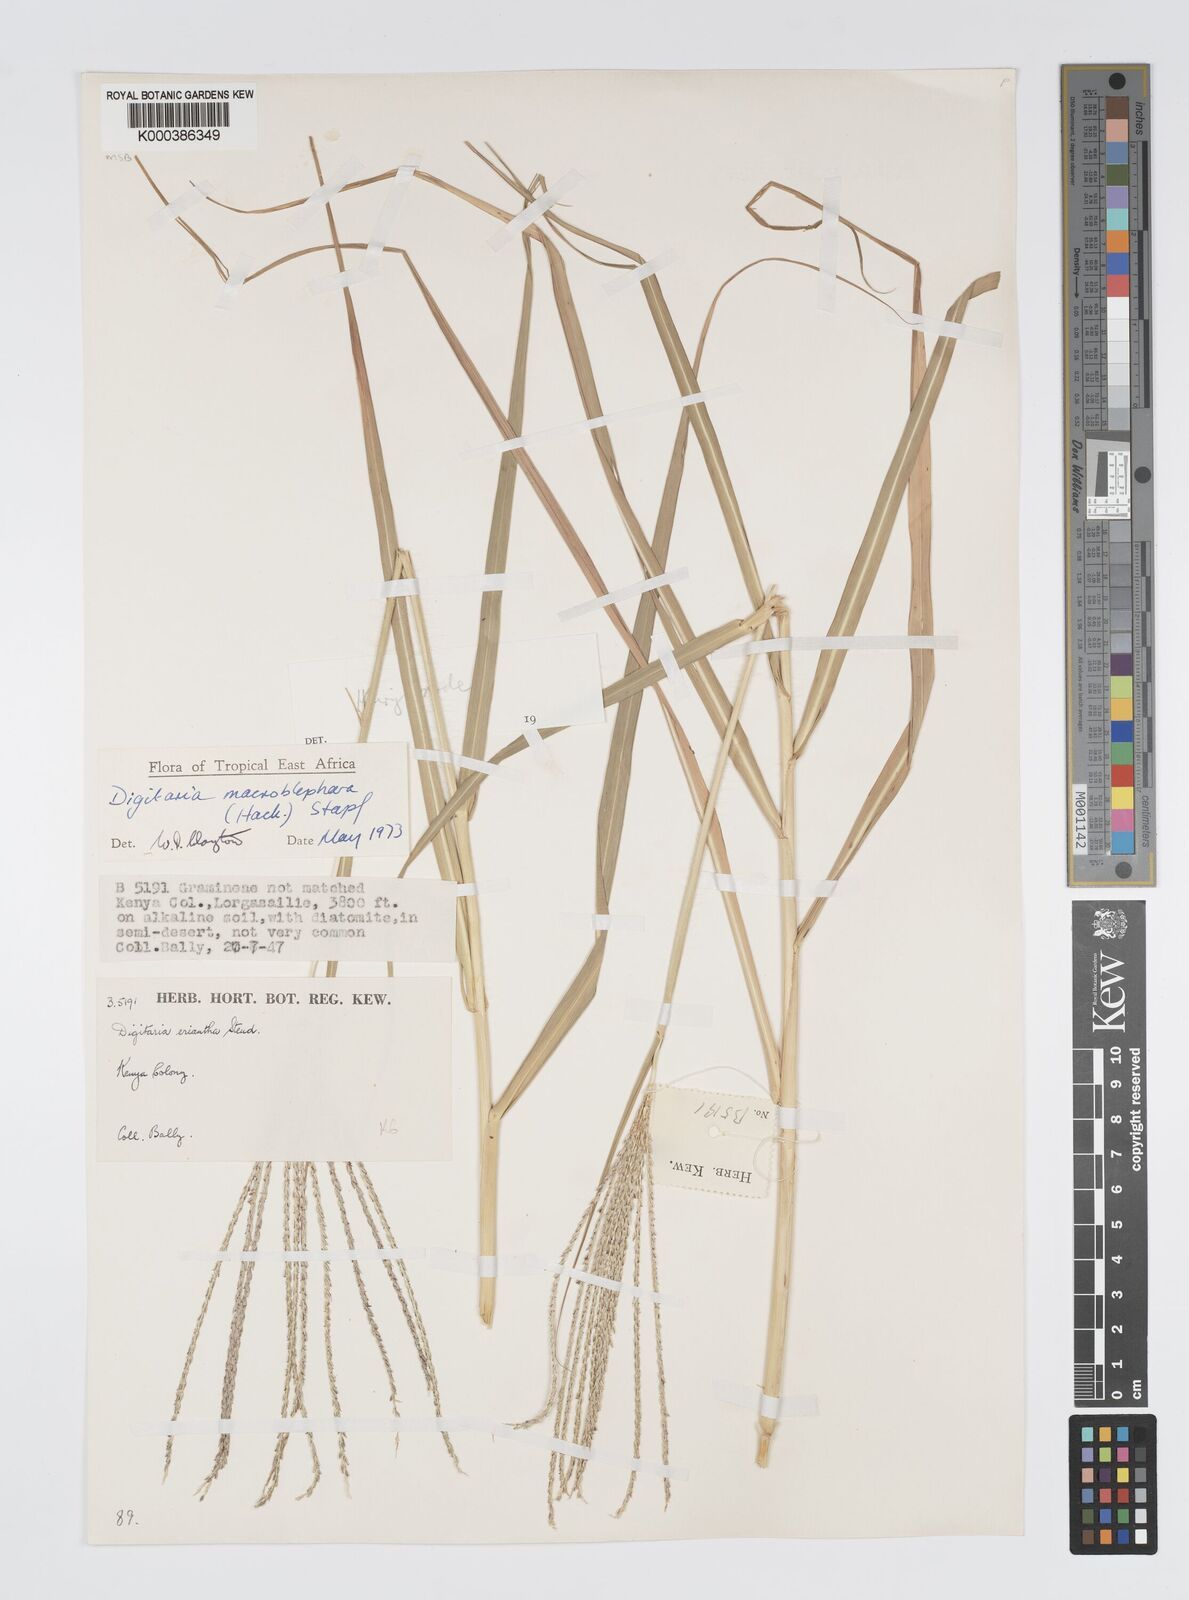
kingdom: Plantae
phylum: Tracheophyta
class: Liliopsida
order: Poales
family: Poaceae
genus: Digitaria
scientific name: Digitaria macroblephara
